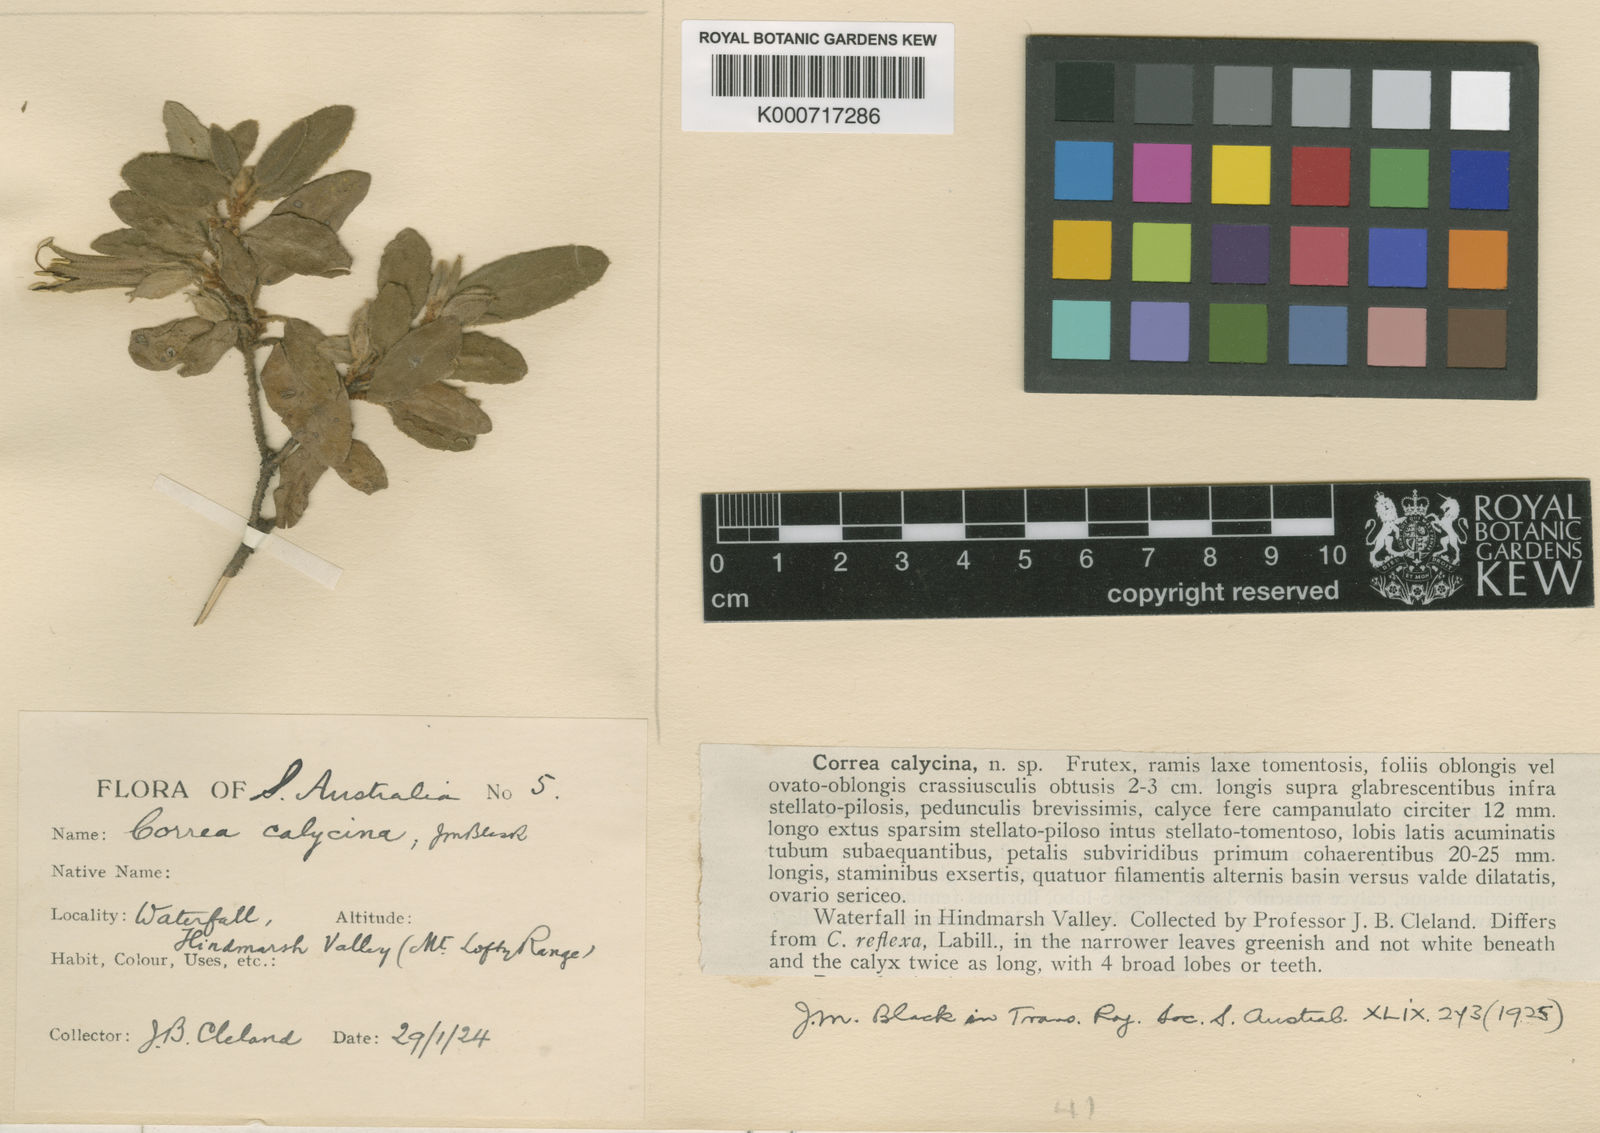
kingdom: Plantae
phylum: Tracheophyta
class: Magnoliopsida
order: Sapindales
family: Rutaceae
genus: Correa
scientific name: Correa calycina
